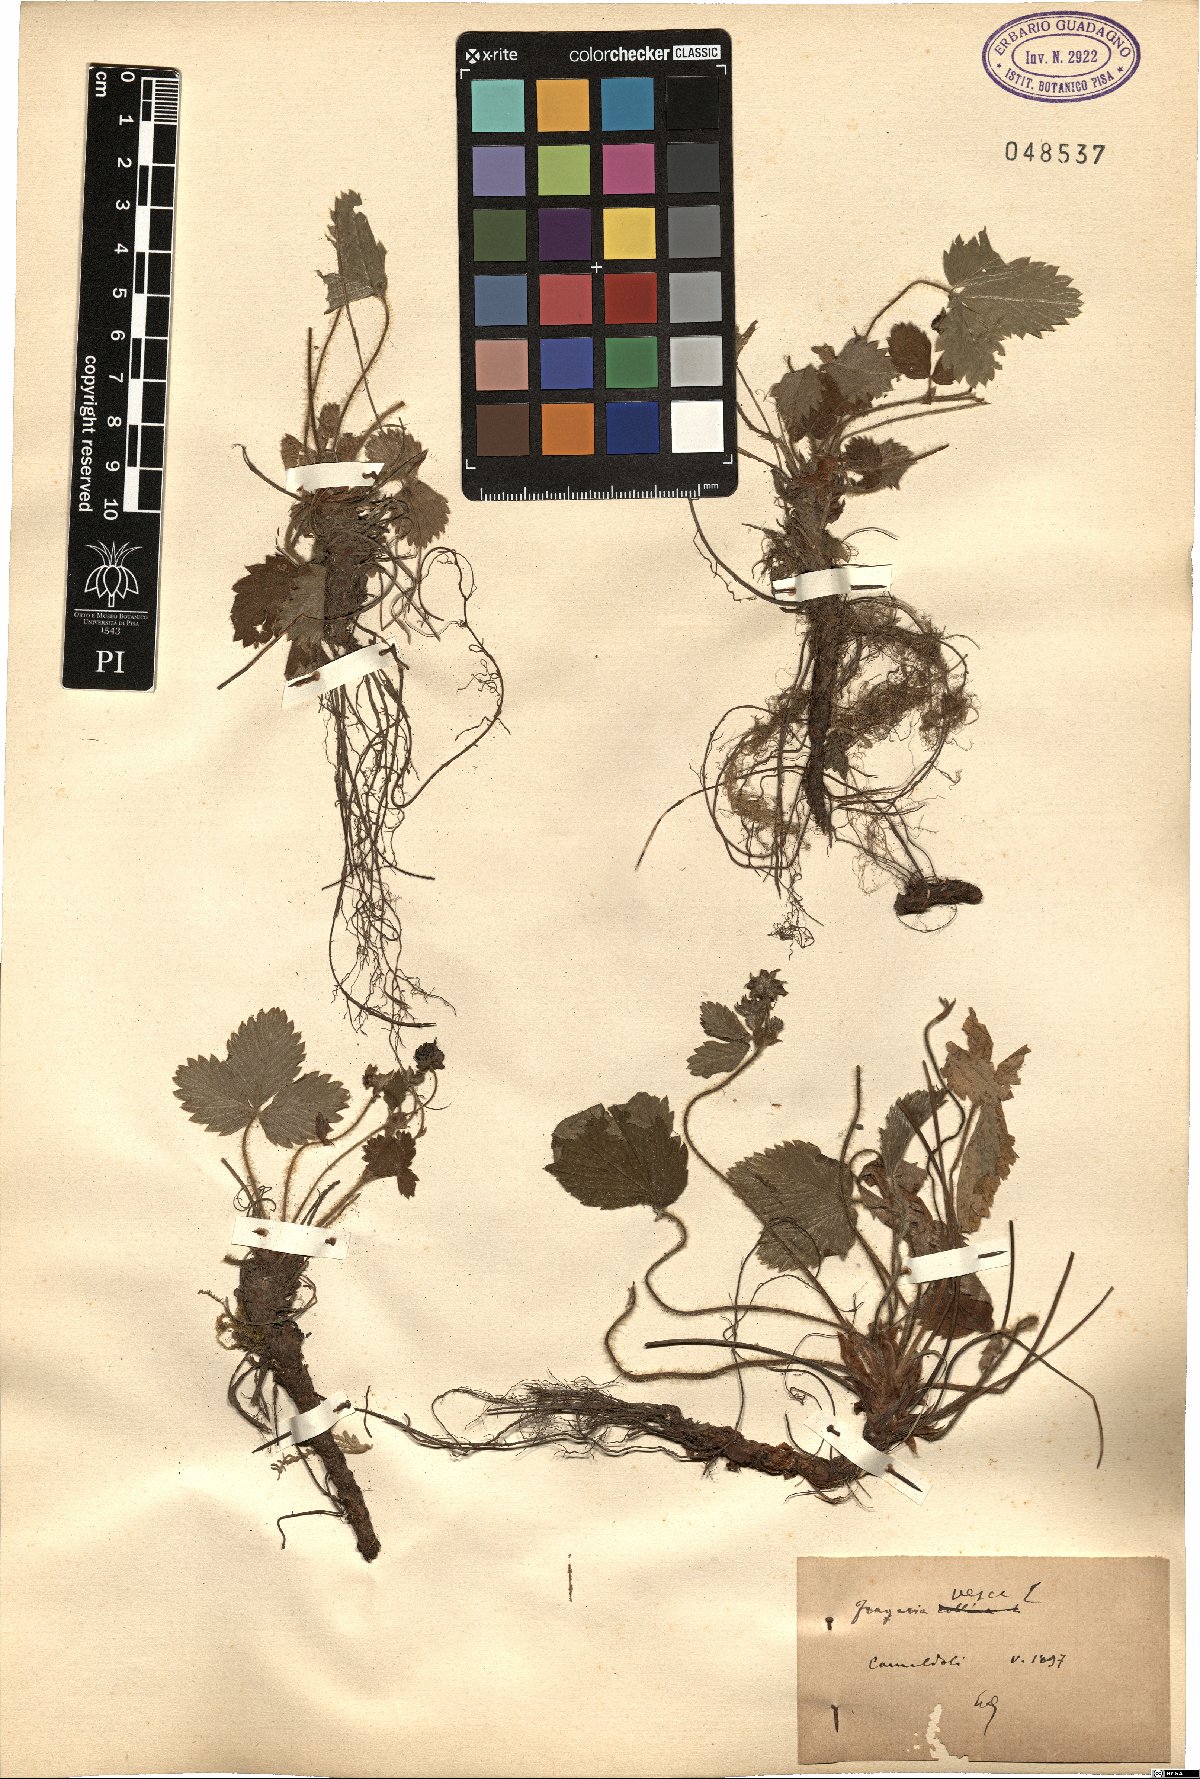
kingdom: Plantae
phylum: Tracheophyta
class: Magnoliopsida
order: Rosales
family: Rosaceae
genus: Fragaria
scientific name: Fragaria vesca
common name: Wild strawberry
